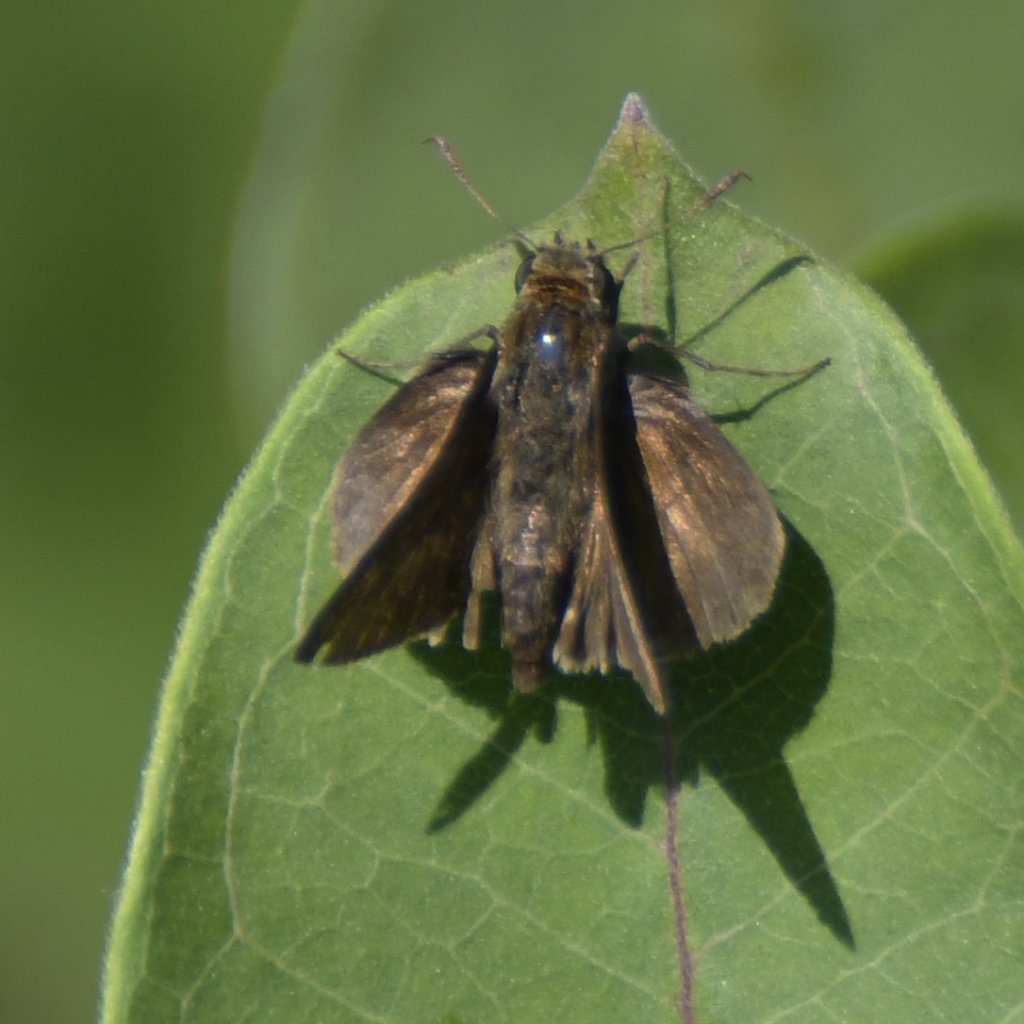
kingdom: Animalia
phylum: Arthropoda
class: Insecta
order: Lepidoptera
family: Hesperiidae
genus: Euphyes
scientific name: Euphyes vestris
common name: Dun Skipper
